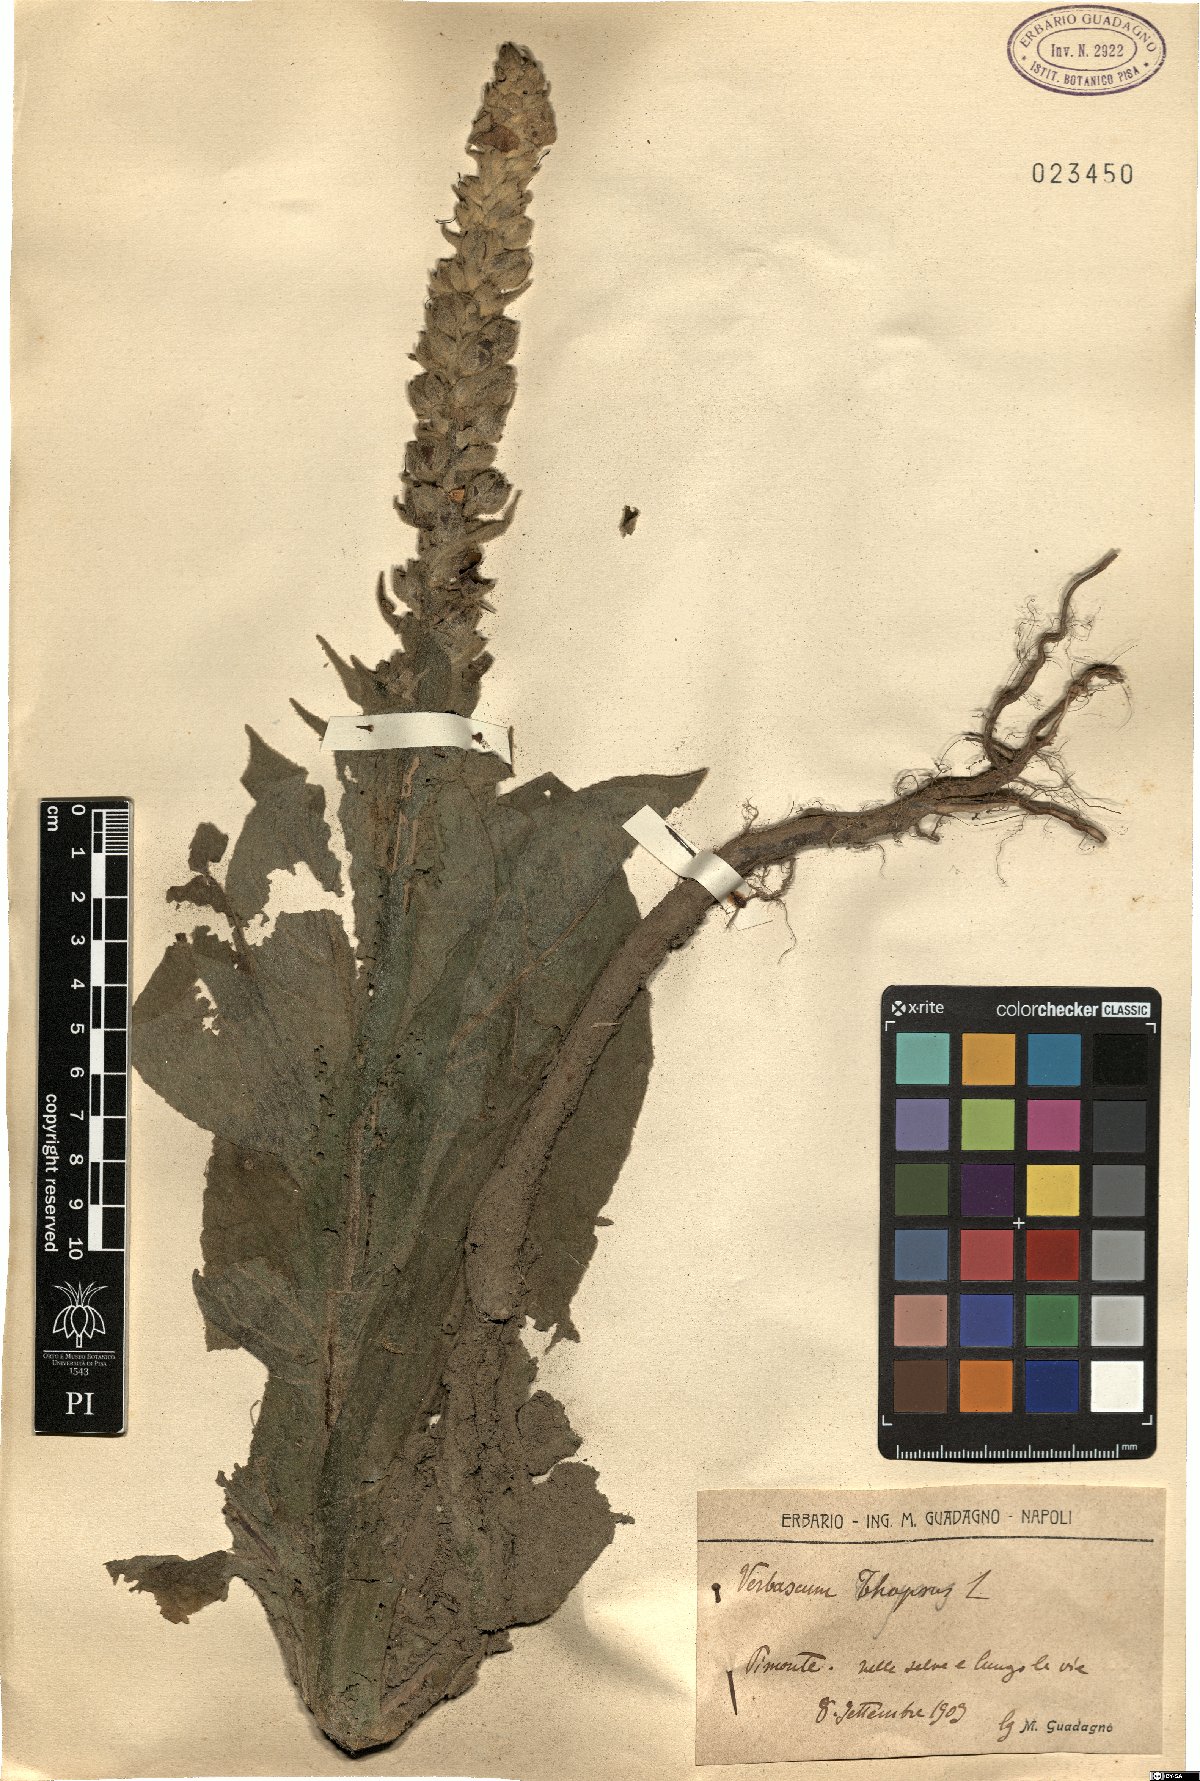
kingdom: Plantae
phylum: Tracheophyta
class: Magnoliopsida
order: Lamiales
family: Scrophulariaceae
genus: Verbascum
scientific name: Verbascum thapsus
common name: Common mullein
